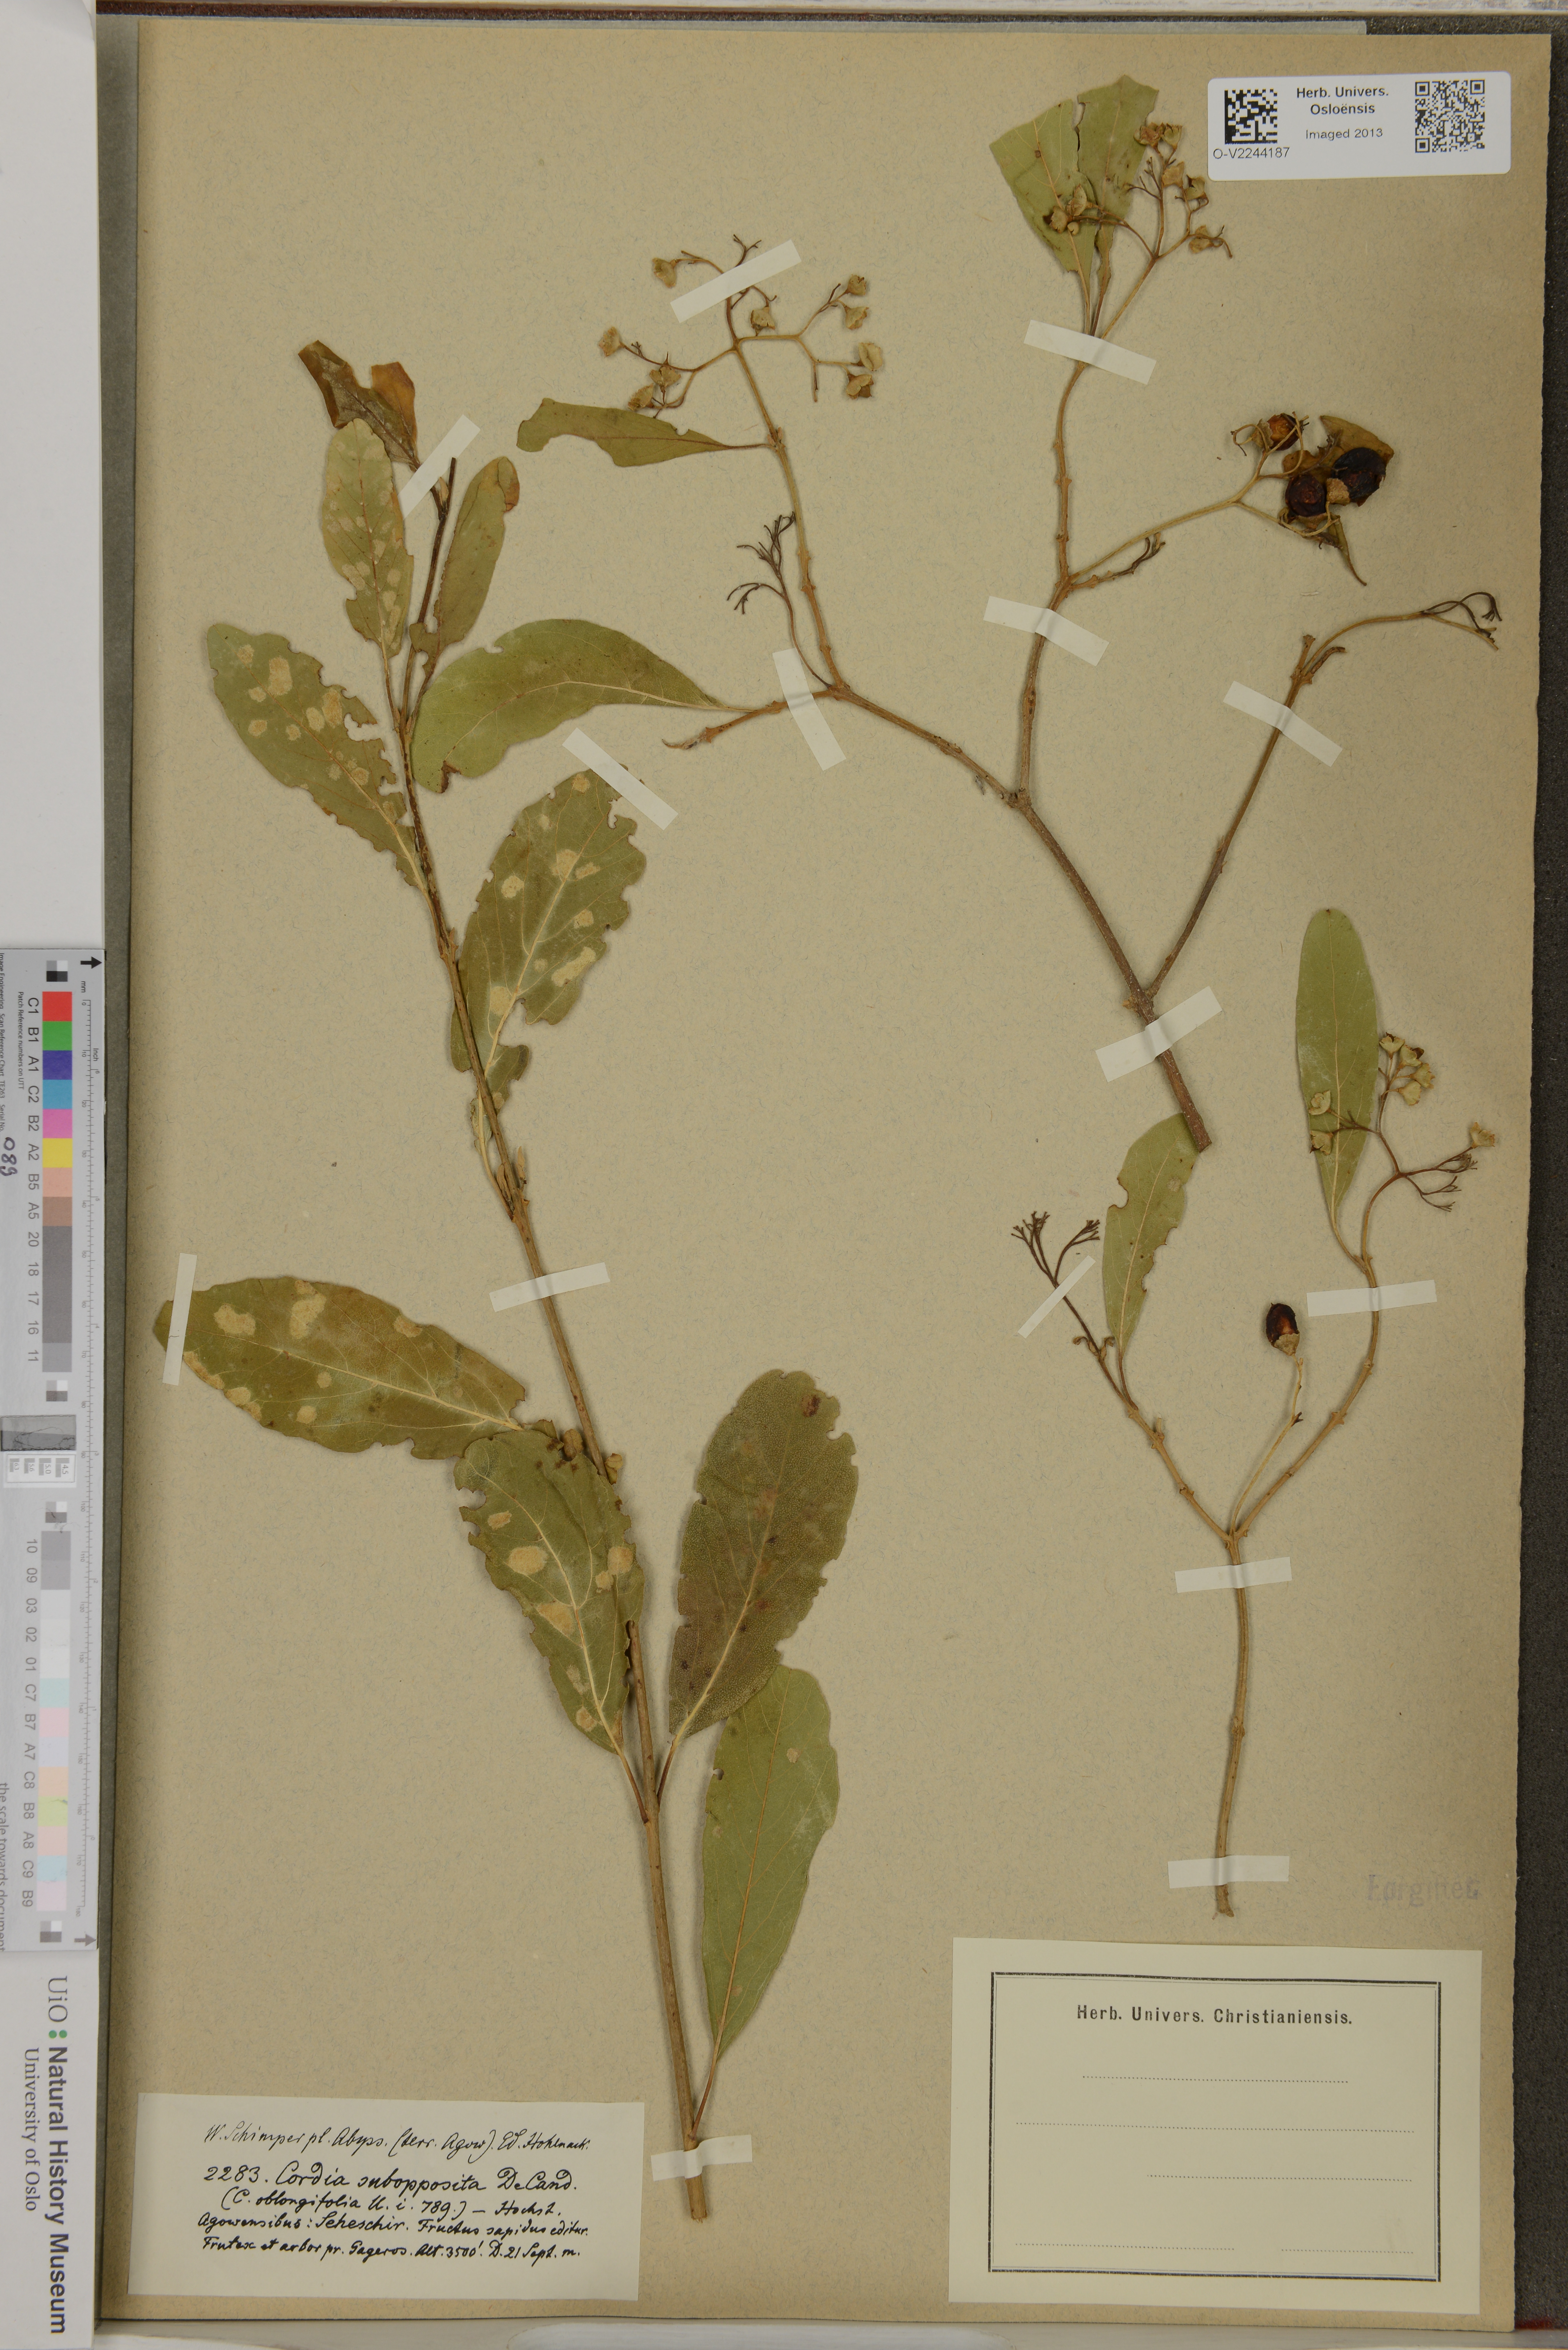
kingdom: Plantae
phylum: Tracheophyta
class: Magnoliopsida
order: Boraginales
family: Cordiaceae
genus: Cordia
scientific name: Cordia sinensis
